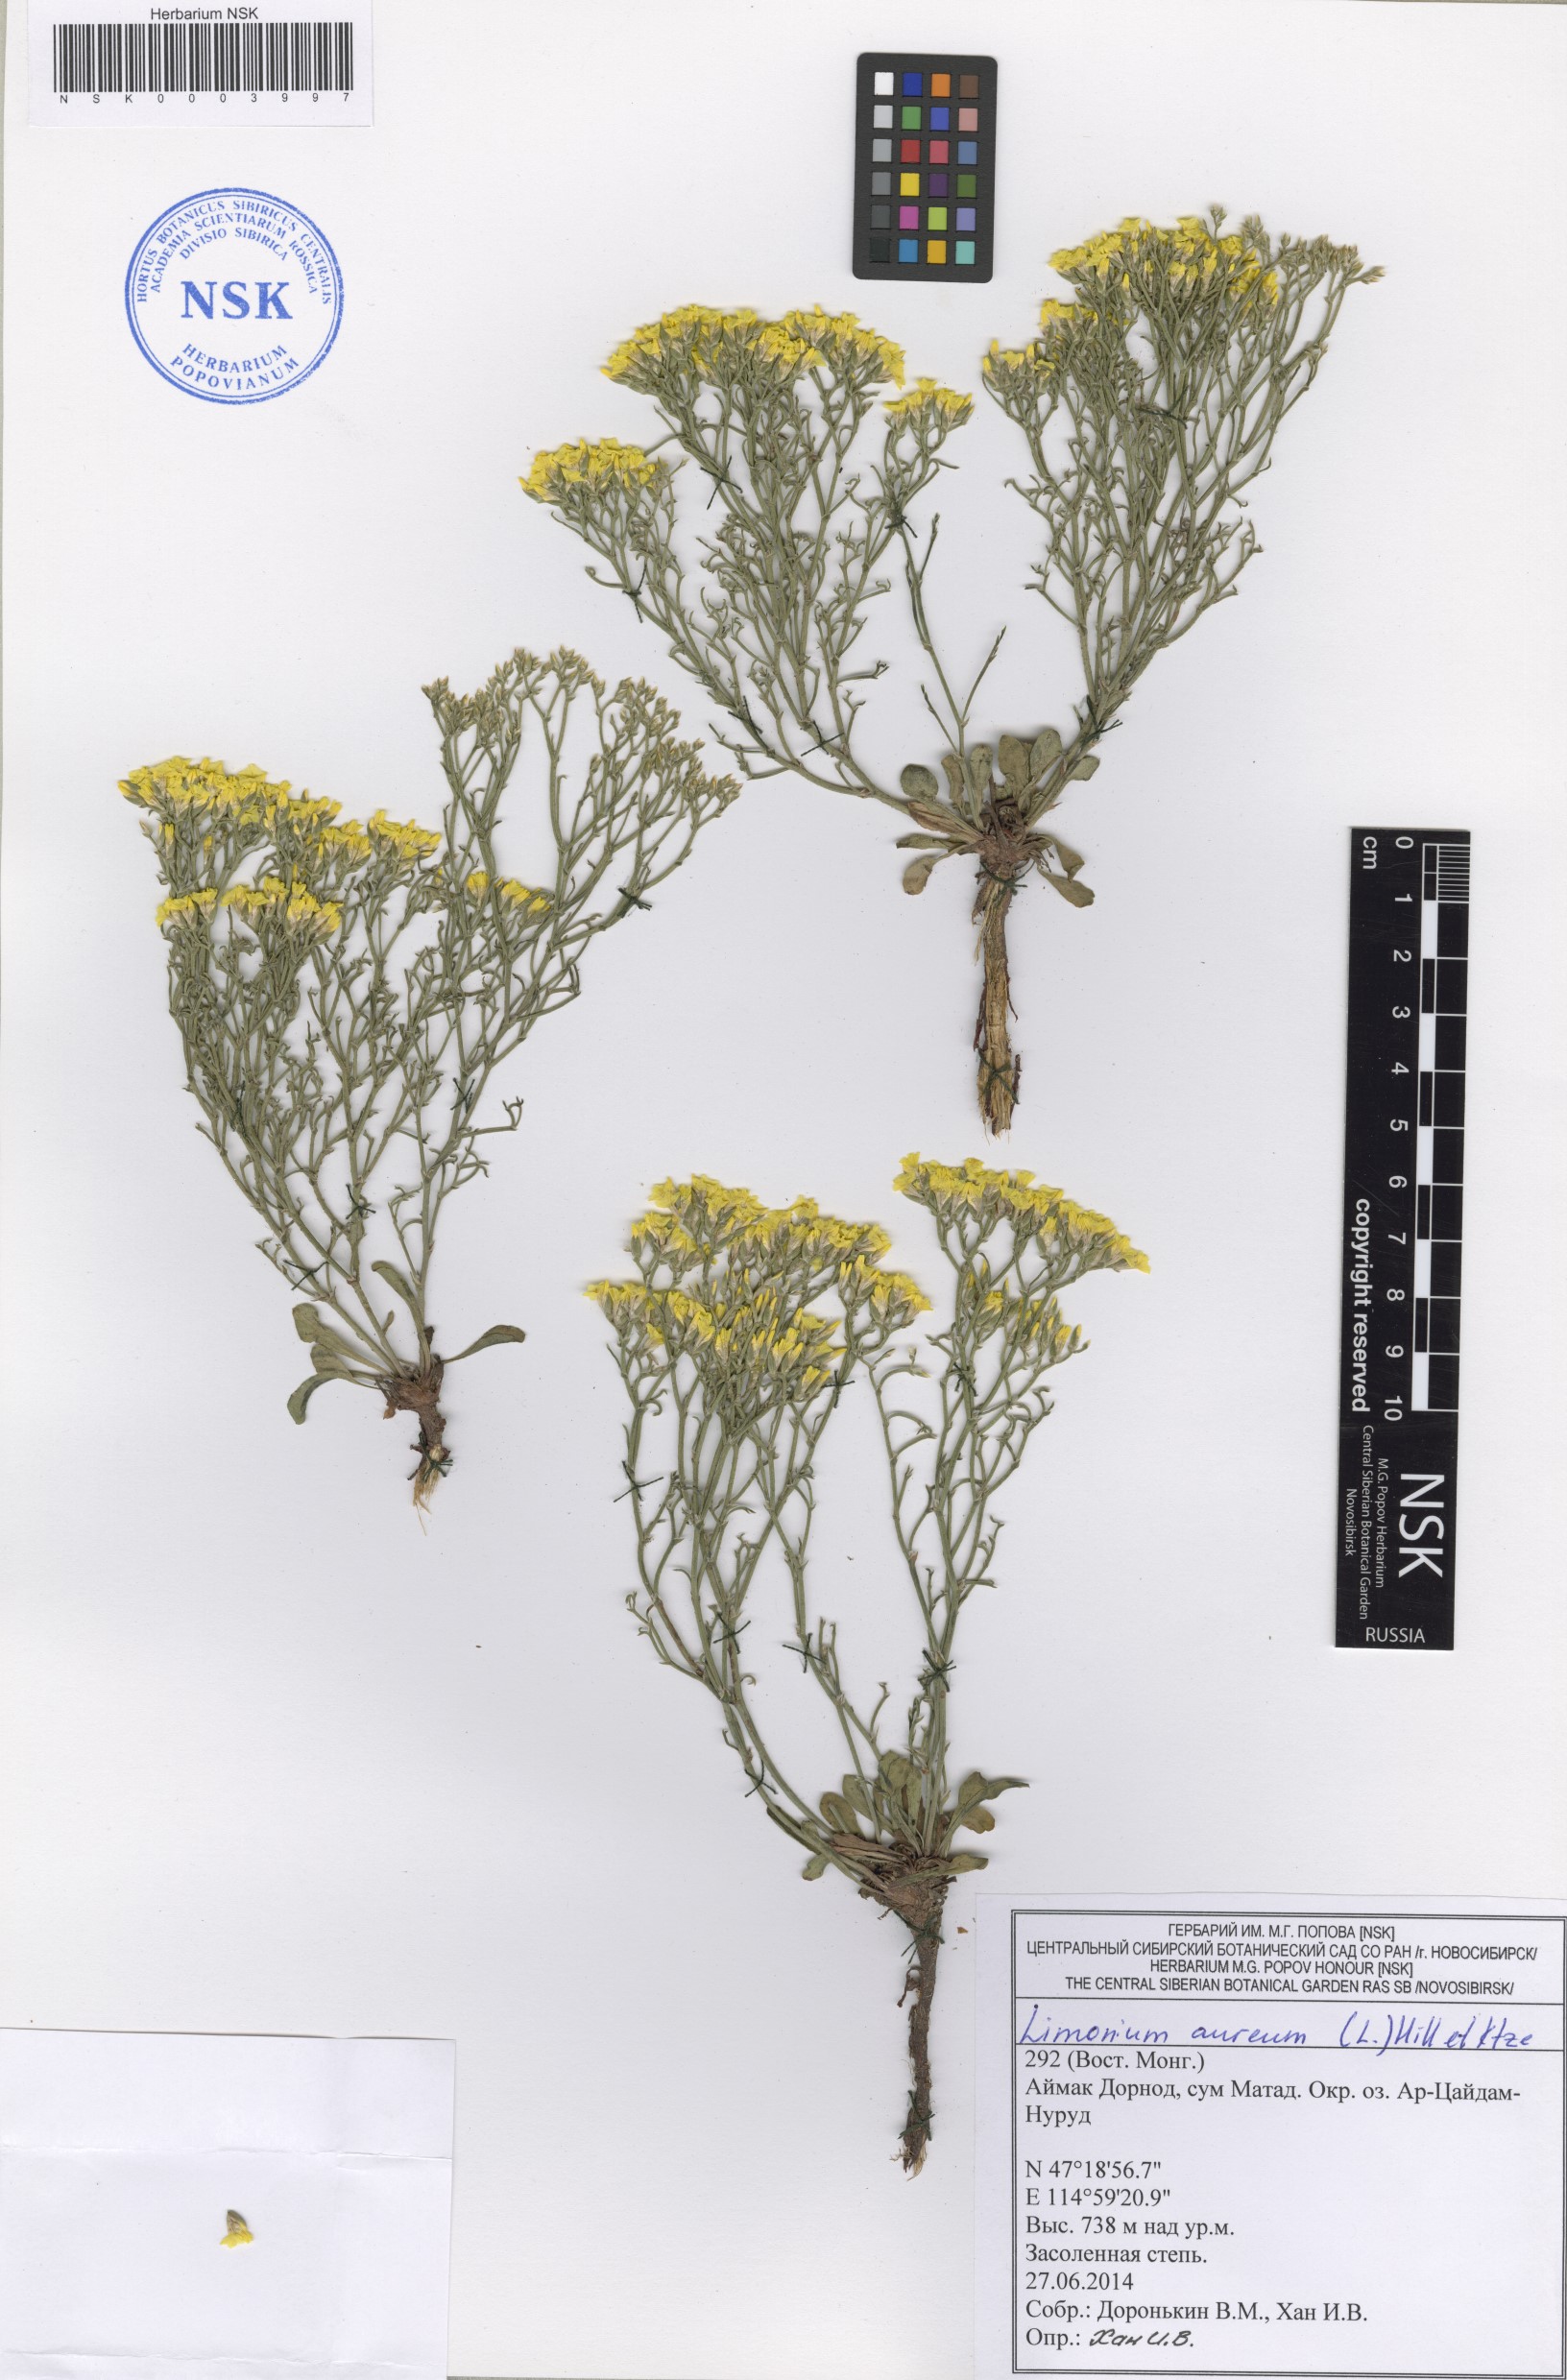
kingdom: Plantae
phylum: Tracheophyta
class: Magnoliopsida
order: Caryophyllales
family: Plumbaginaceae
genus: Limonium
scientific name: Limonium aureum
